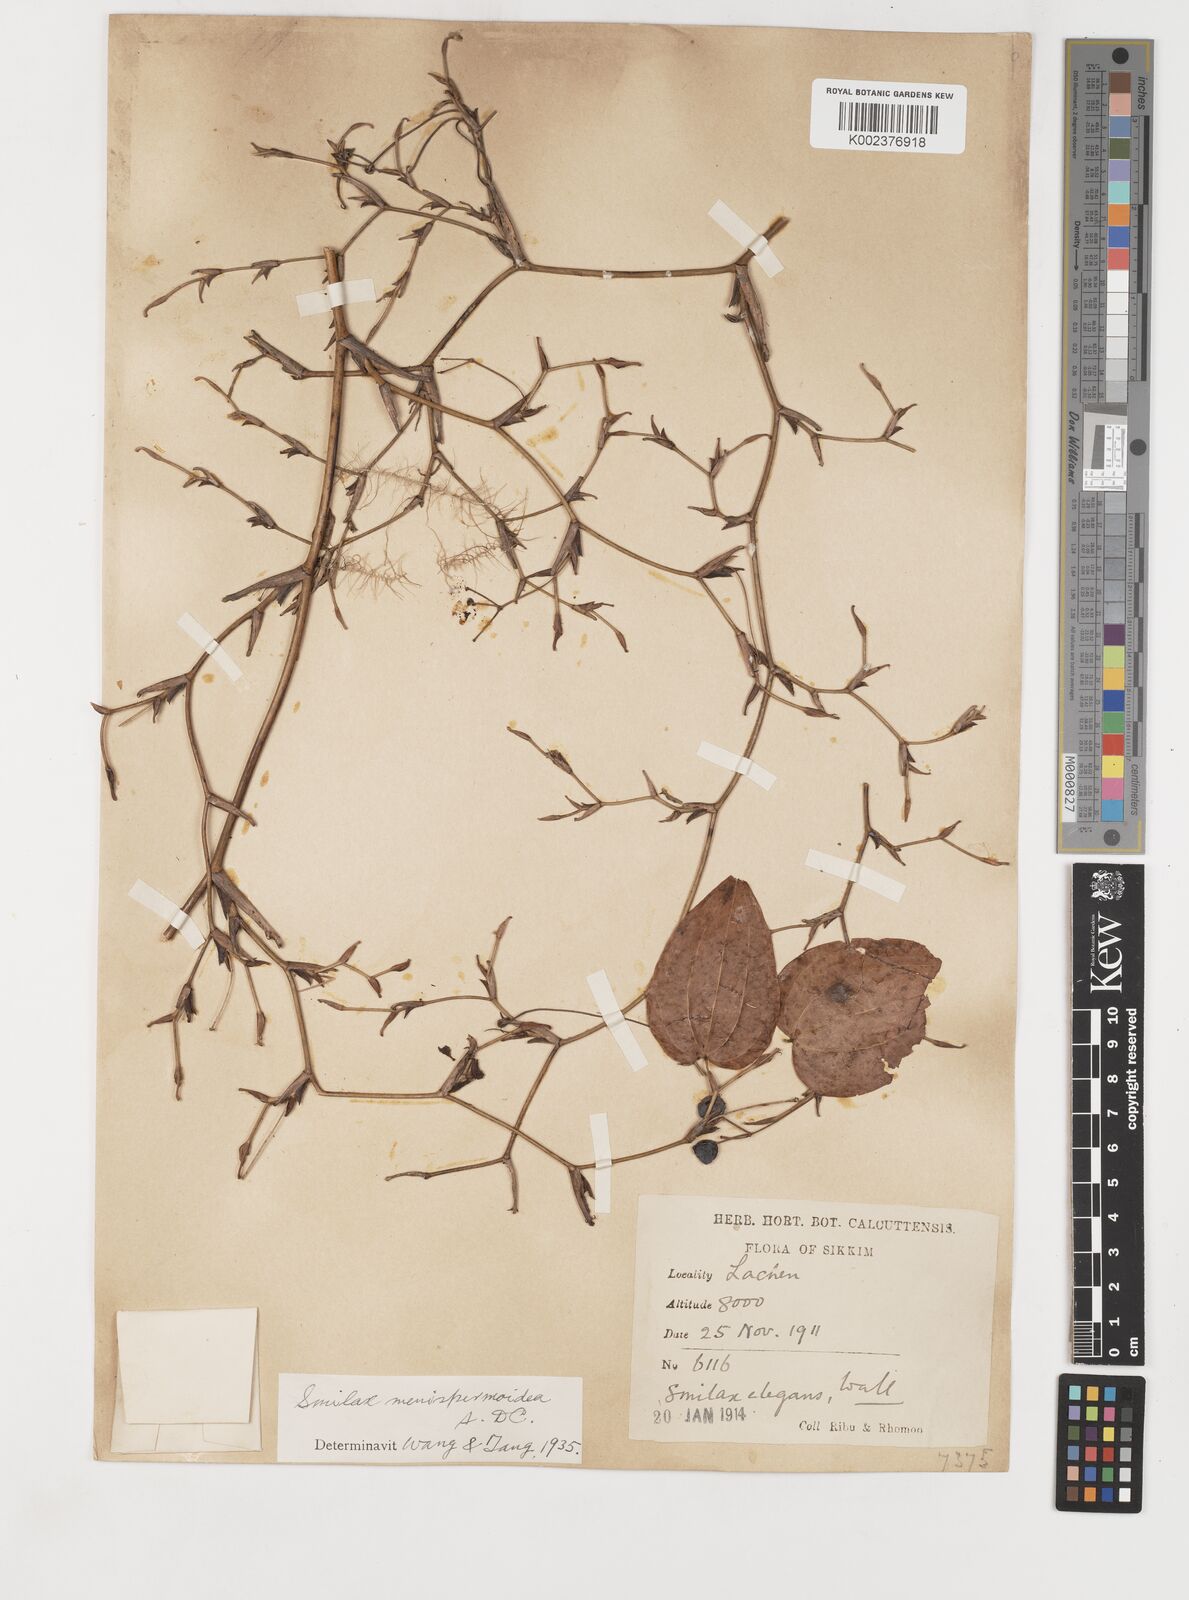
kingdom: Plantae
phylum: Tracheophyta
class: Liliopsida
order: Liliales
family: Smilacaceae
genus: Smilax
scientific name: Smilax menispermoidea
